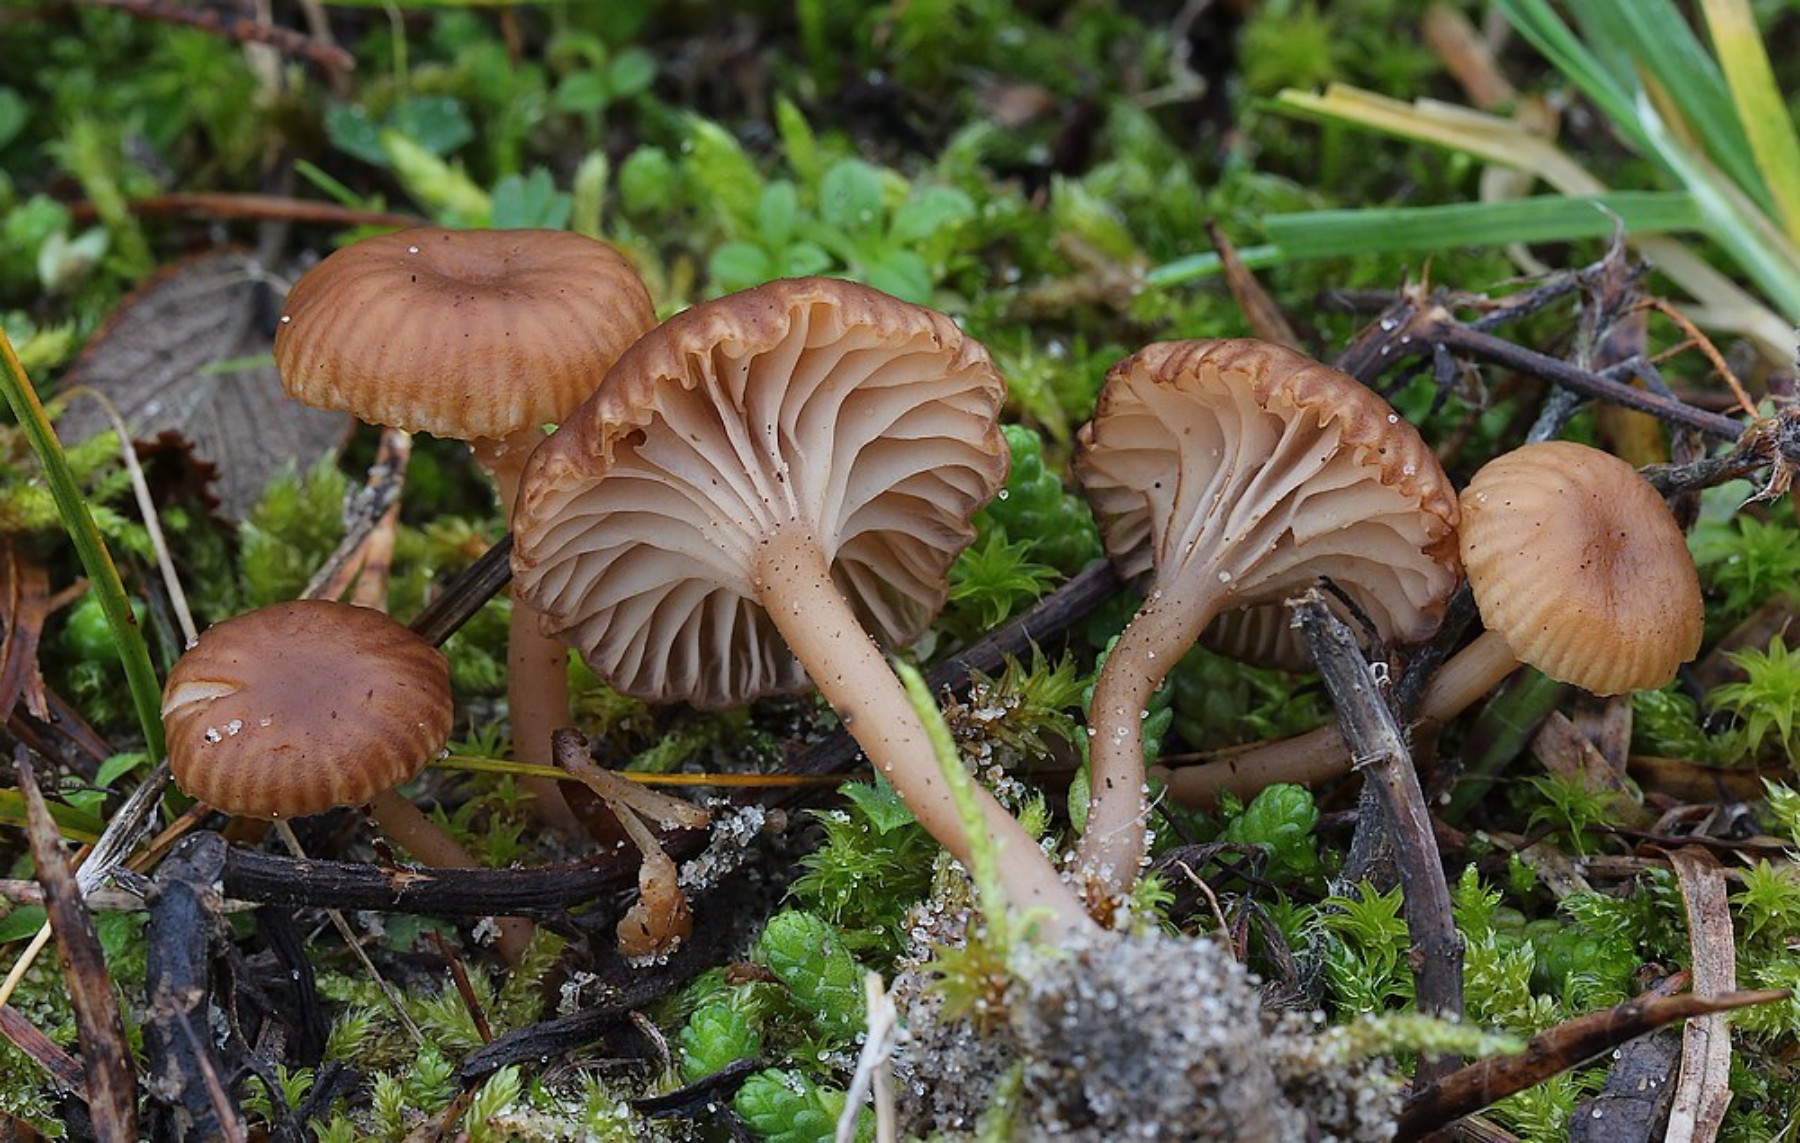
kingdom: Fungi
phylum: Basidiomycota
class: Agaricomycetes
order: Agaricales
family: Tricholomataceae
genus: Omphalina
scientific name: Omphalina pyxidata
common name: rødbrun navlehat
